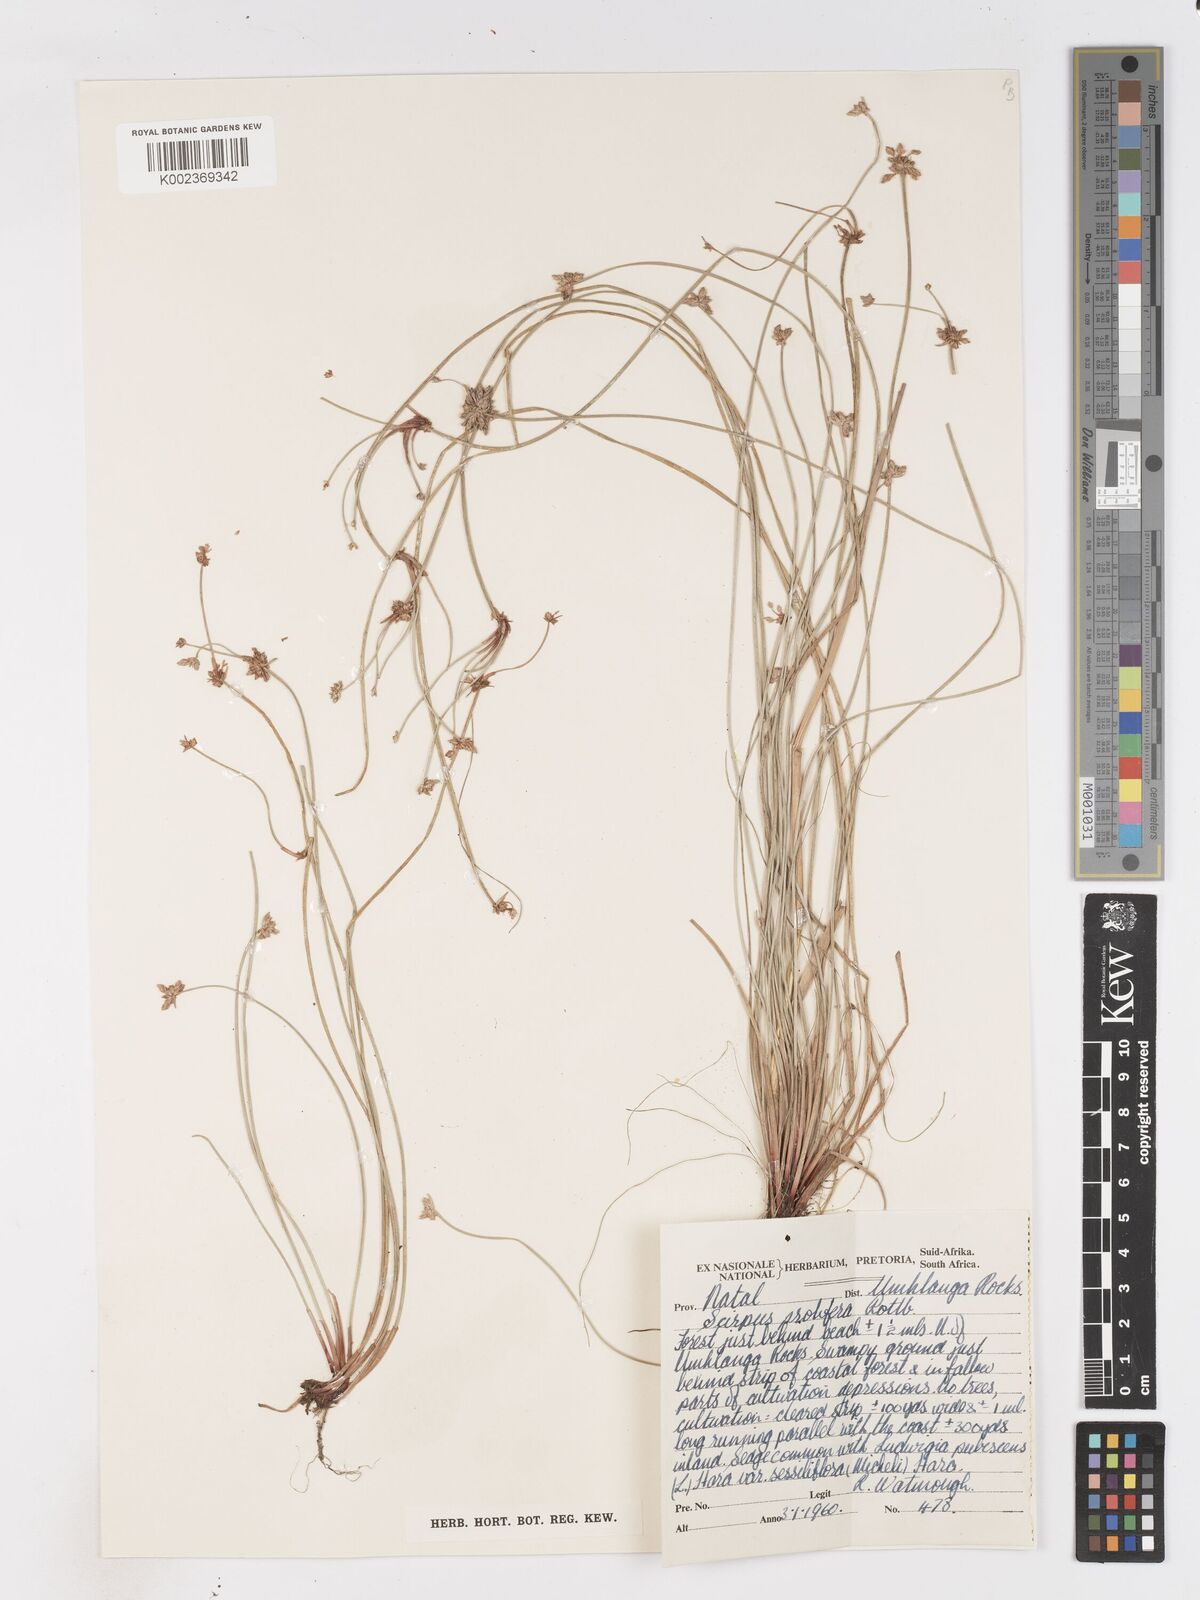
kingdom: Plantae
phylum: Tracheophyta
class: Liliopsida
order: Poales
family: Cyperaceae
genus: Isolepis
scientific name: Isolepis prolifera
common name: Proliferating bulrush
